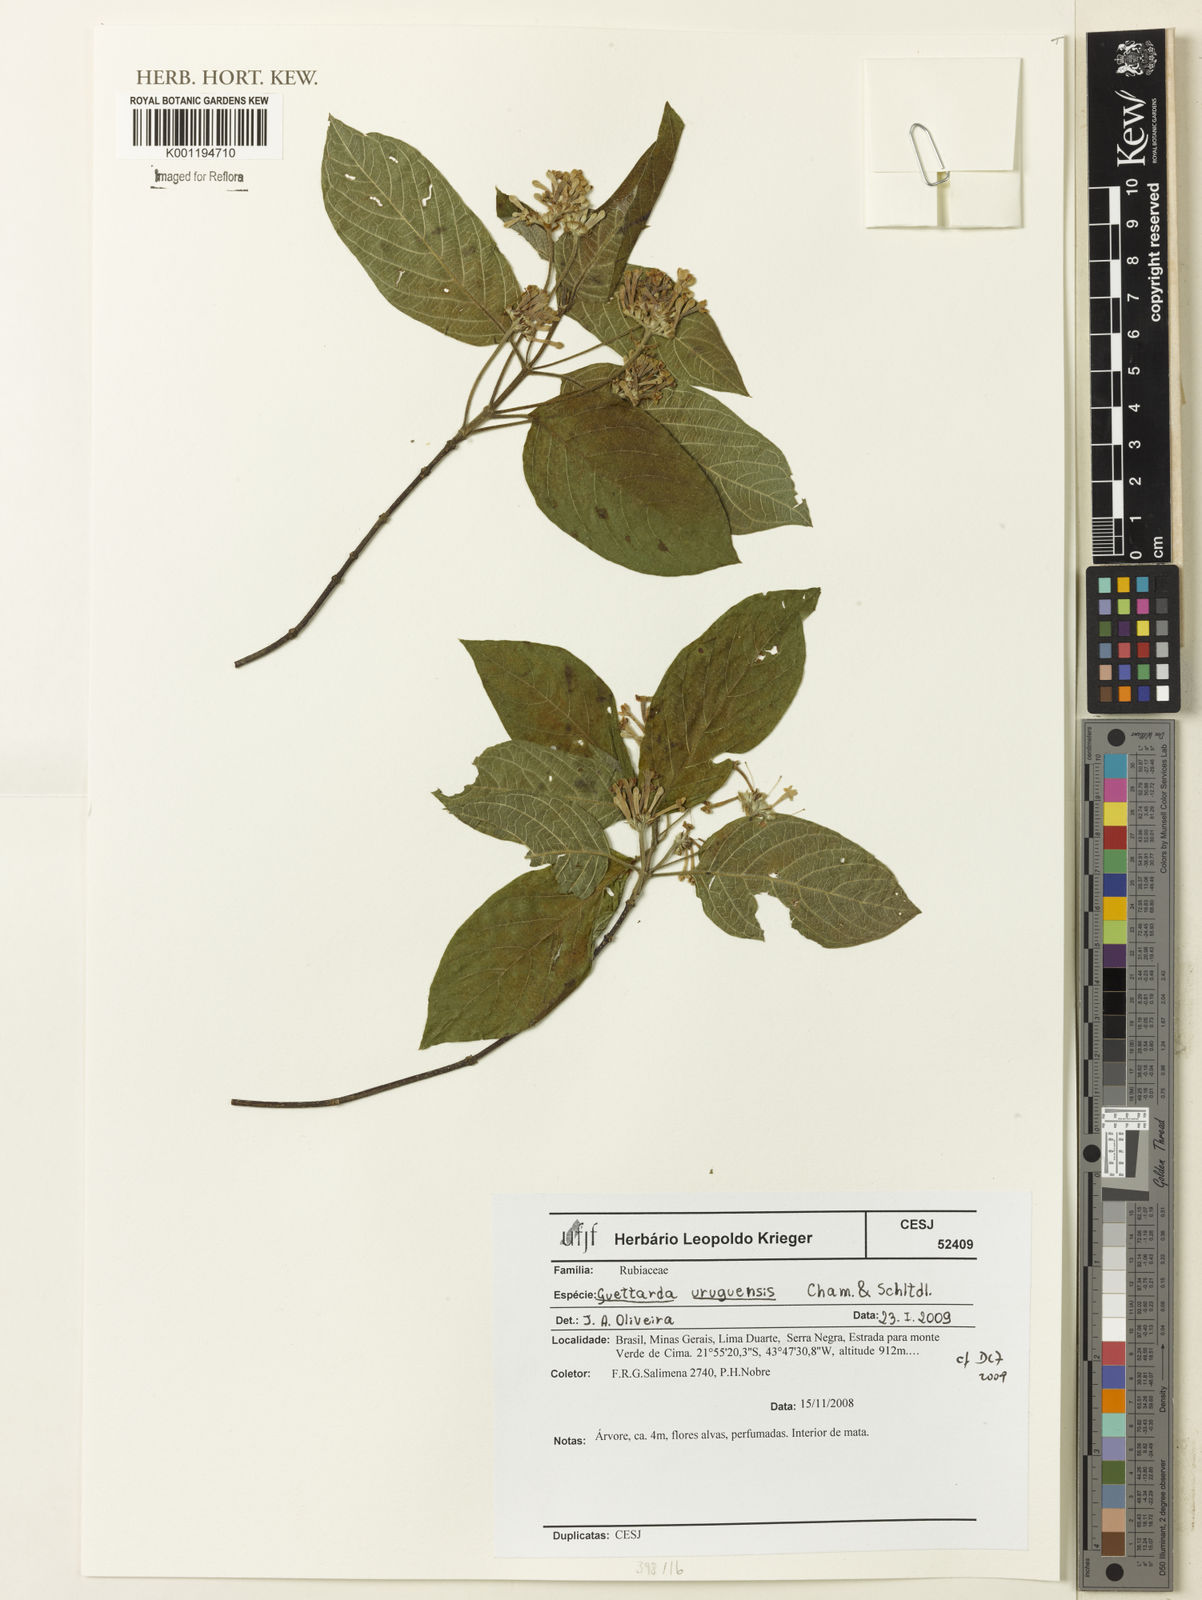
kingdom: Plantae
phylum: Tracheophyta
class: Magnoliopsida
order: Gentianales
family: Rubiaceae
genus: Guettarda
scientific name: Guettarda uruguensis
